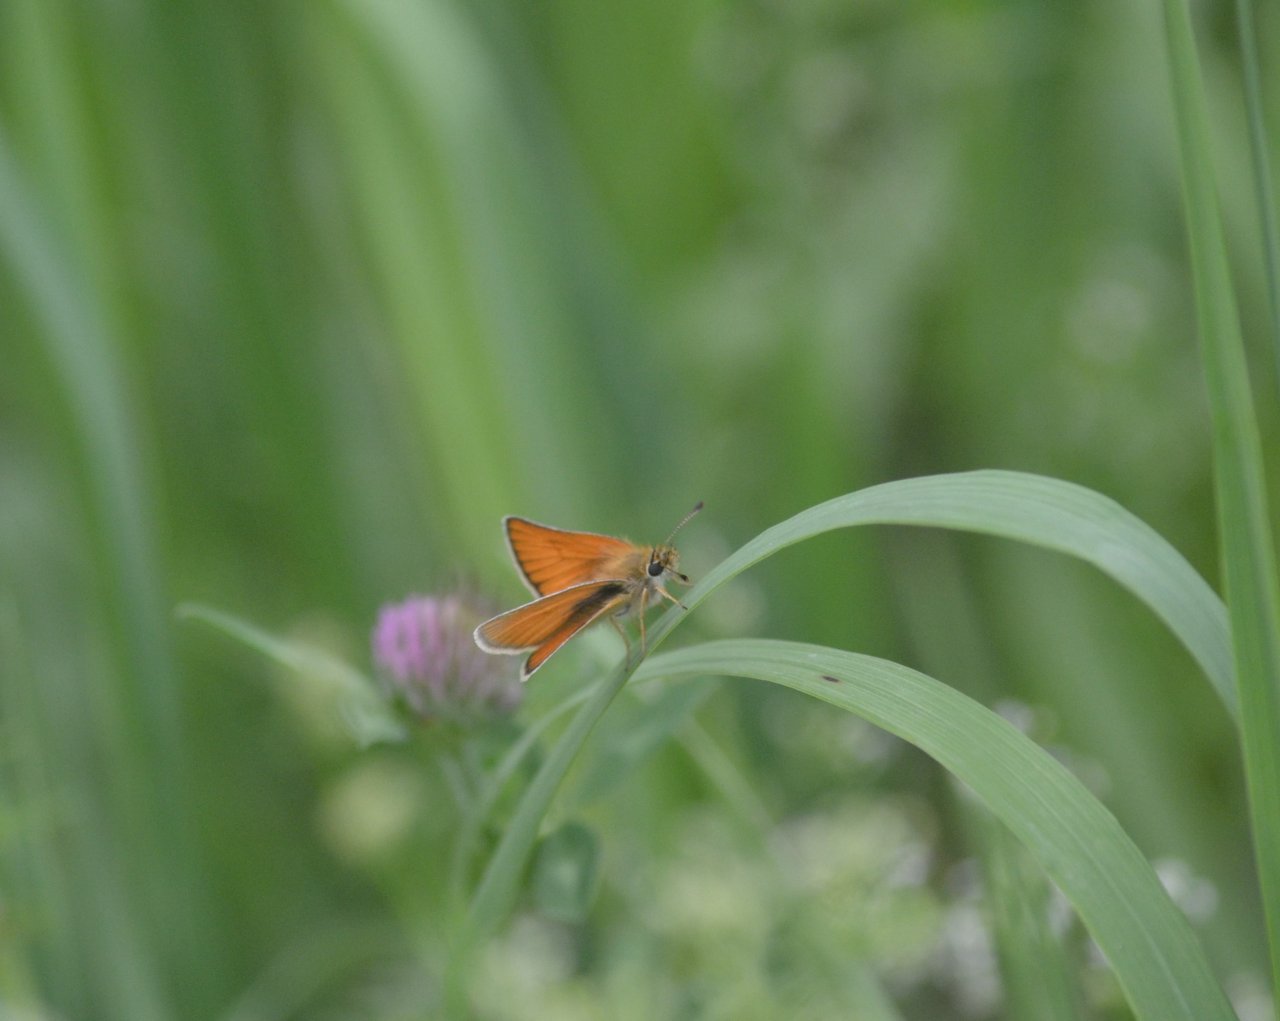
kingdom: Animalia
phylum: Arthropoda
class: Insecta
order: Lepidoptera
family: Hesperiidae
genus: Thymelicus
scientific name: Thymelicus lineola
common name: European Skipper
